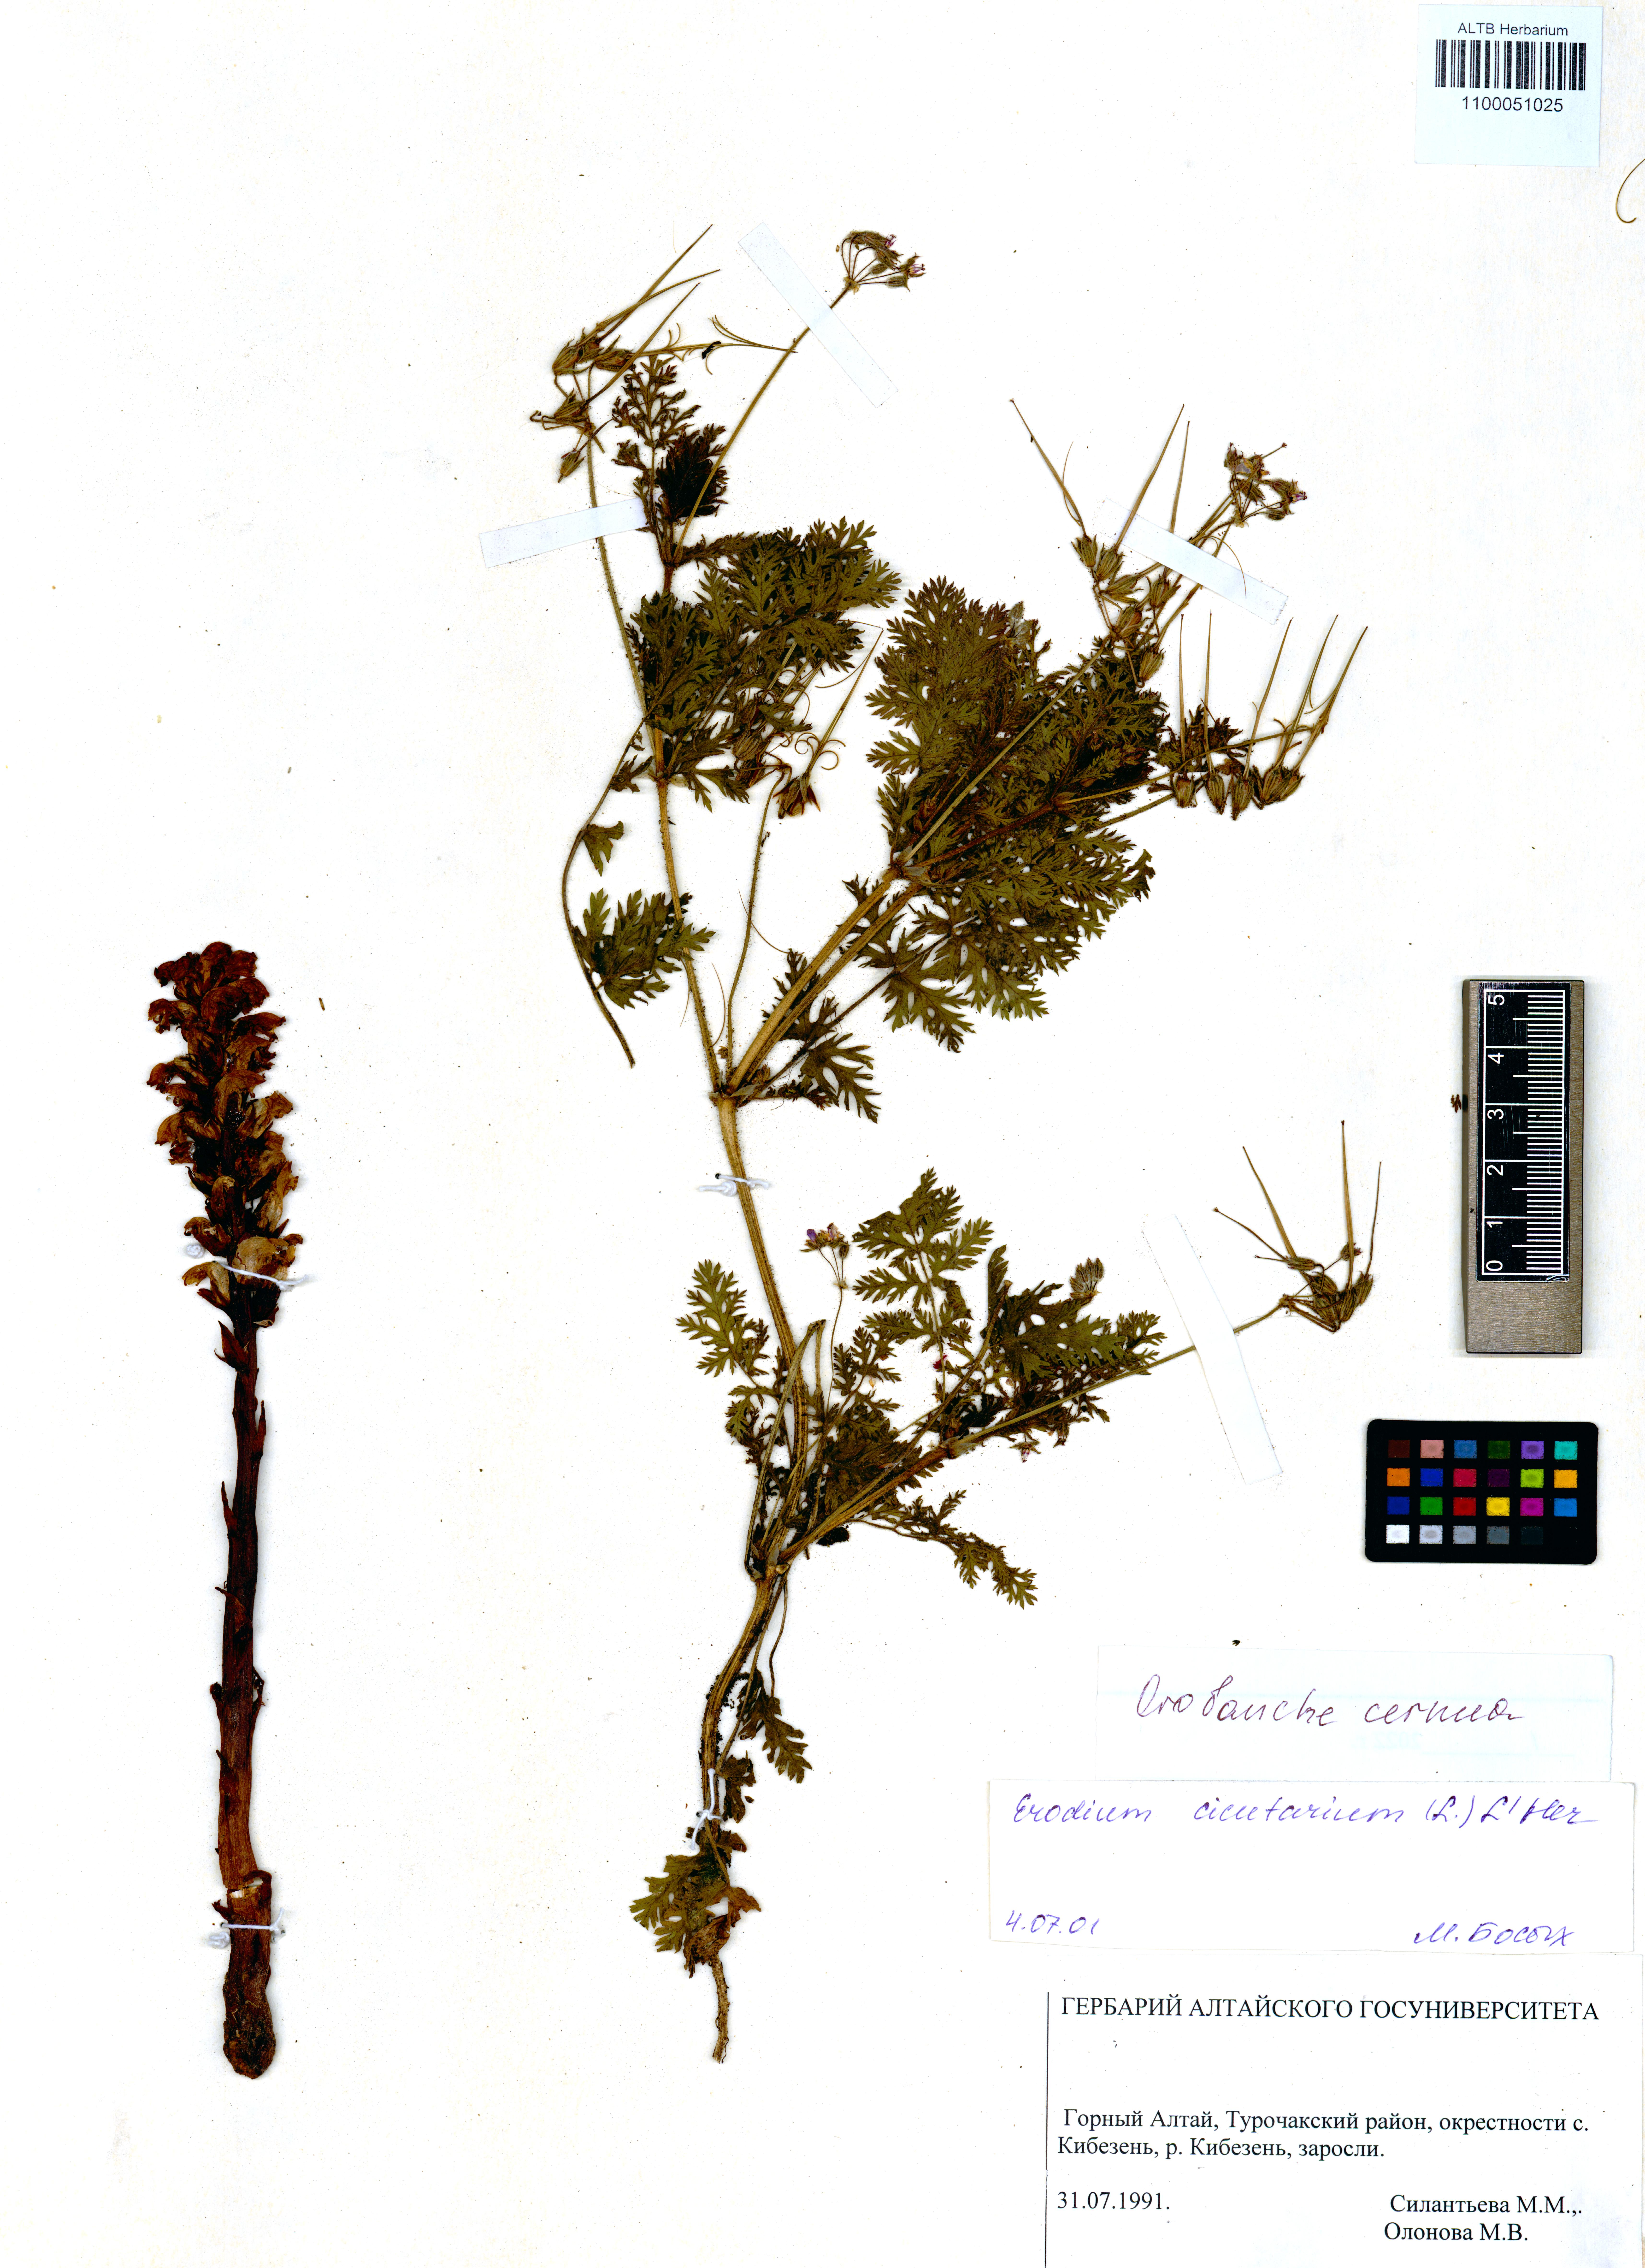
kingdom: Plantae
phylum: Tracheophyta
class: Magnoliopsida
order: Lamiales
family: Orobanchaceae
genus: Orobanche
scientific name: Orobanche cernua
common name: Australian broomrape
